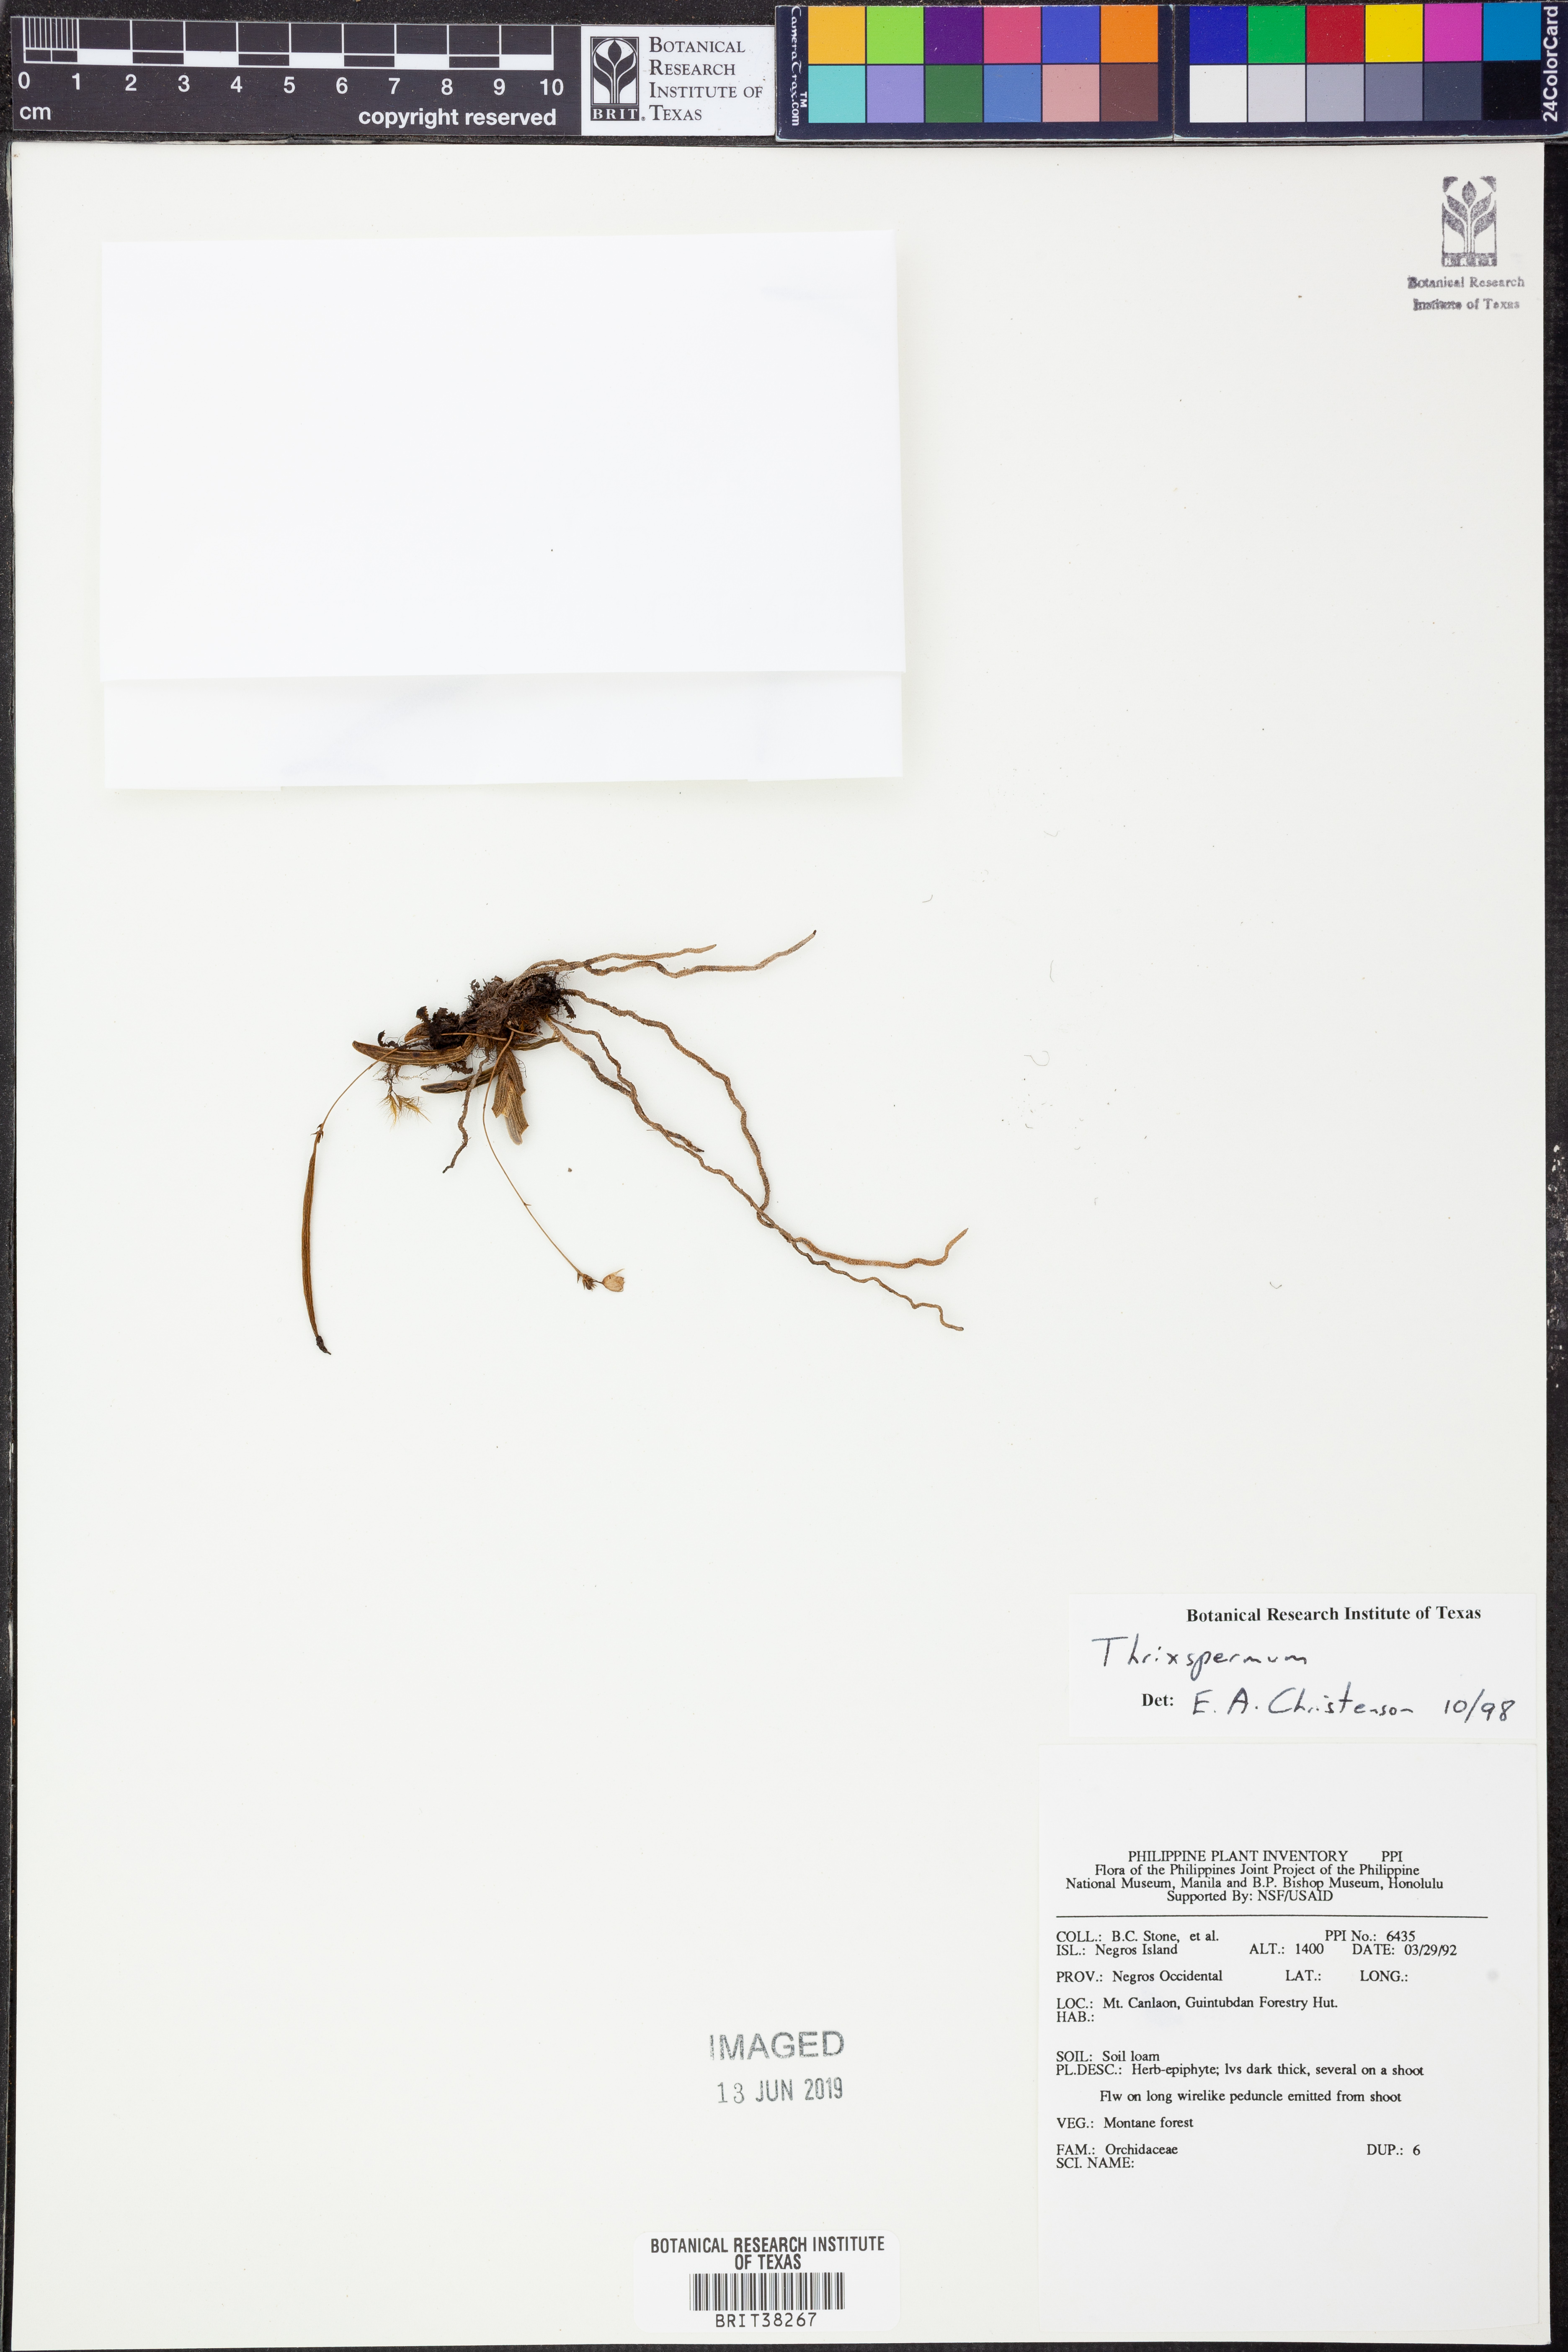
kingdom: Plantae
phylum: Tracheophyta
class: Liliopsida
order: Asparagales
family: Orchidaceae
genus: Thrixspermum
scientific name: Thrixspermum
